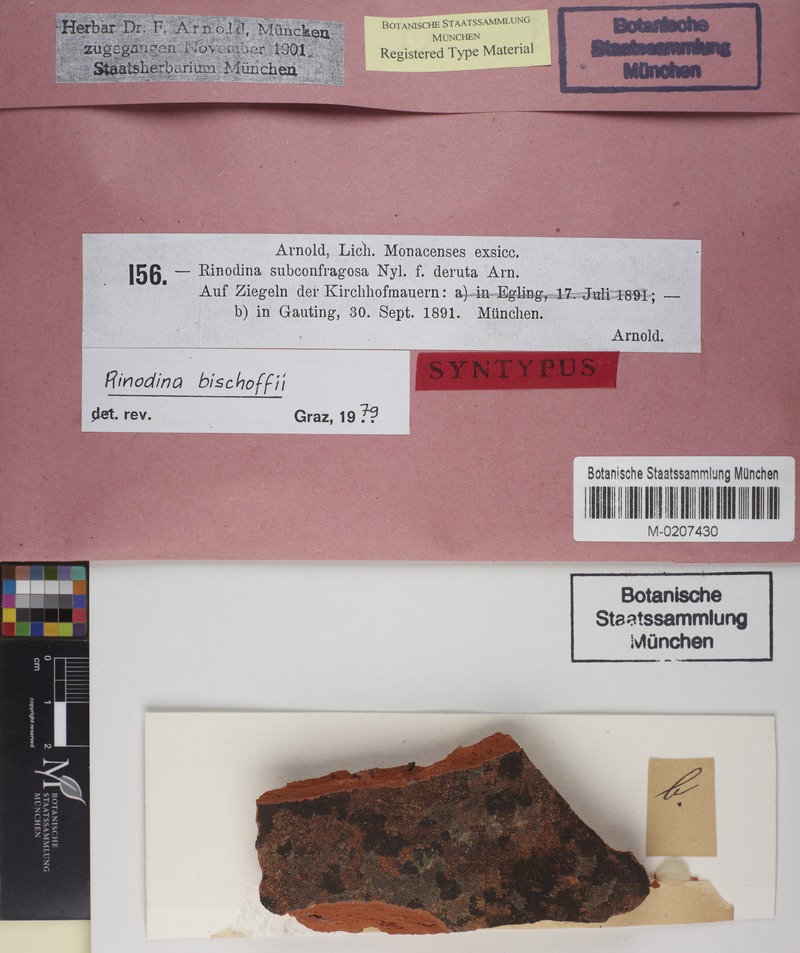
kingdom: Fungi
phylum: Ascomycota
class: Lecanoromycetes
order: Caliciales
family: Physciaceae
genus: Rinodina
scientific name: Rinodina bischoffii
